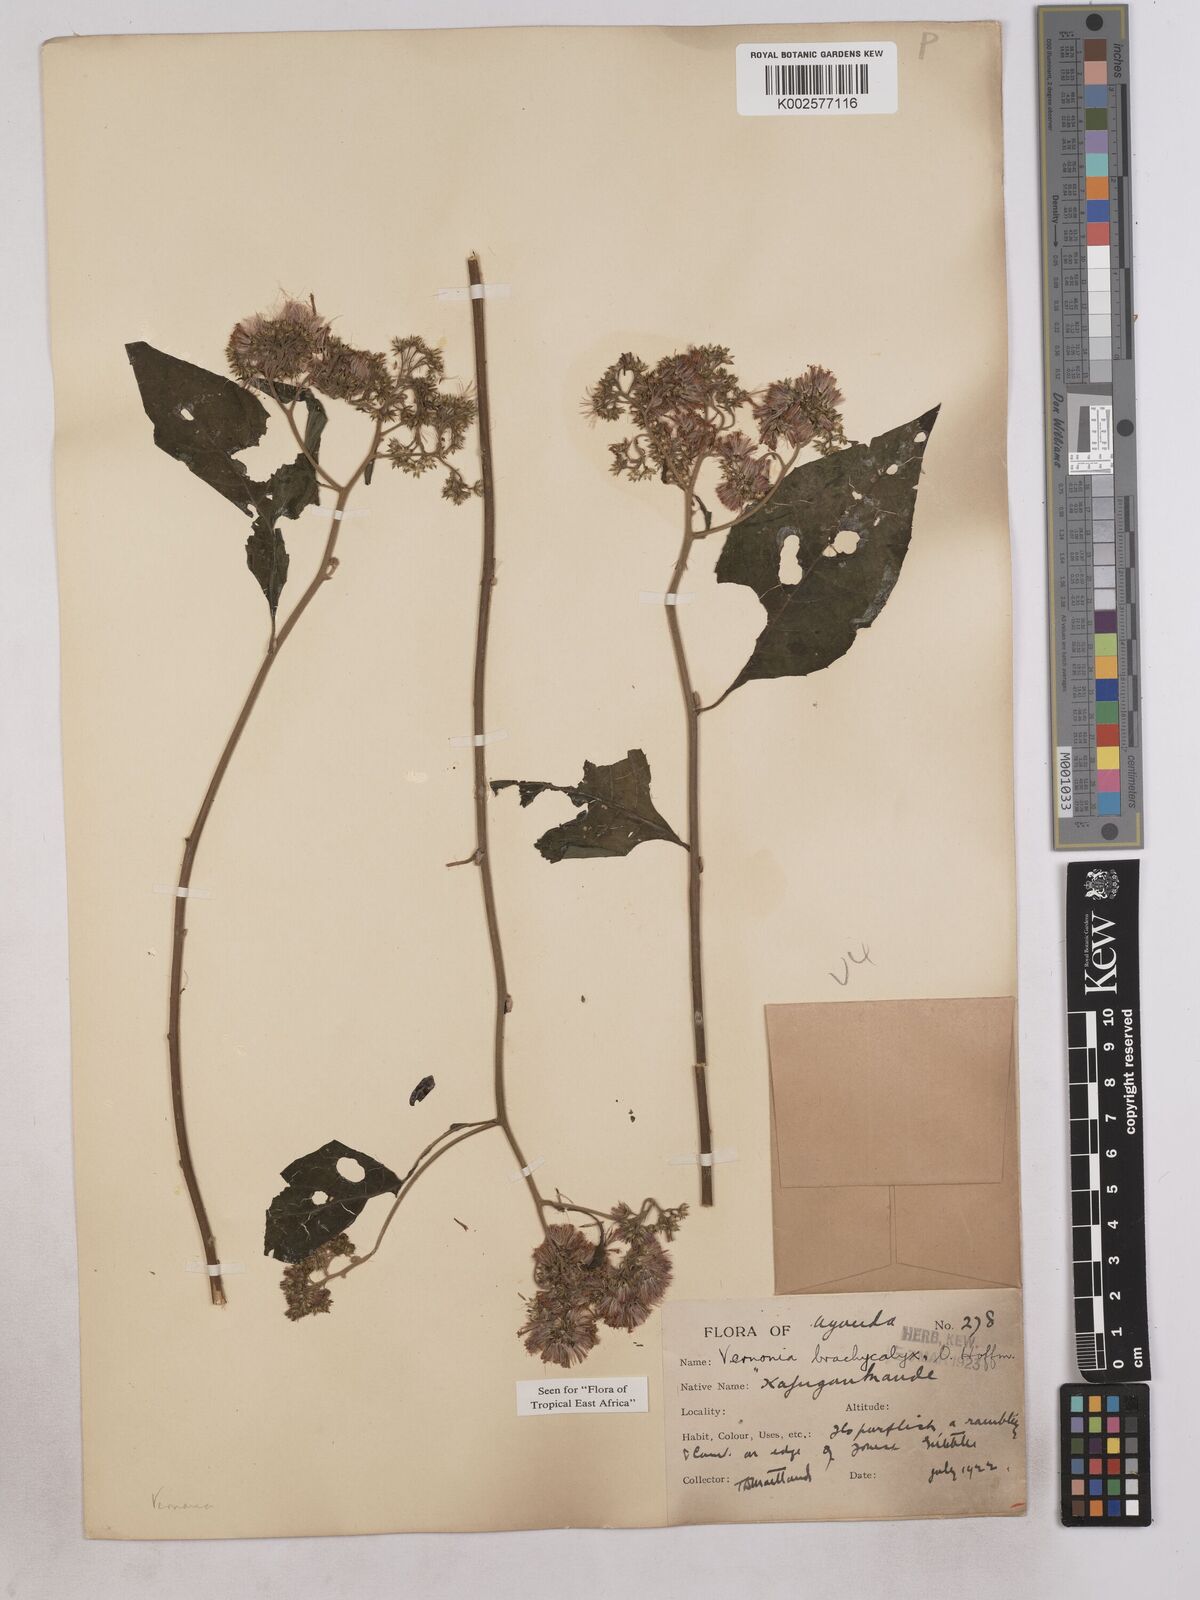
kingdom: Plantae
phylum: Tracheophyta
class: Magnoliopsida
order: Asterales
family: Asteraceae
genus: Hoffmannanthus
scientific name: Hoffmannanthus abbotianus
